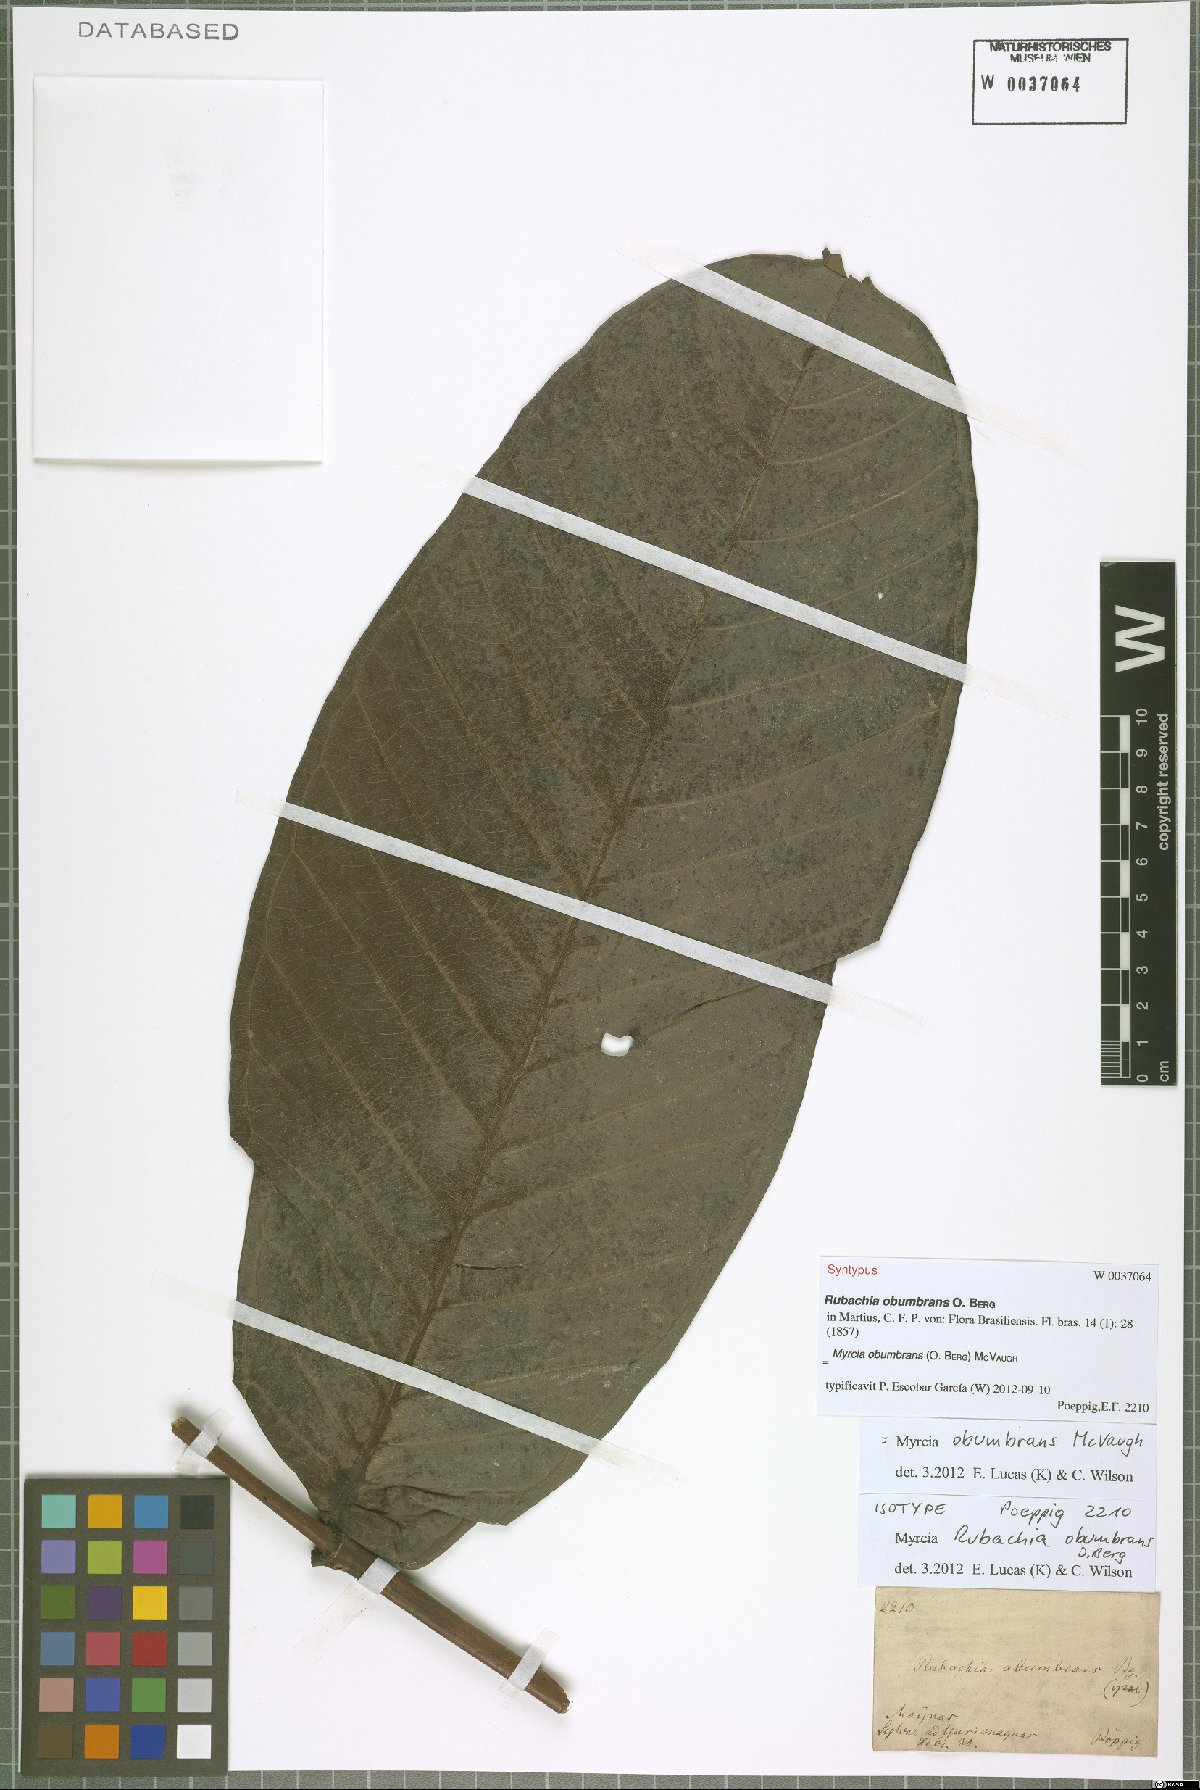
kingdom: Plantae
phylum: Tracheophyta
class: Magnoliopsida
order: Myrtales
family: Myrtaceae
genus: Myrcia
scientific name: Myrcia obumbrans
